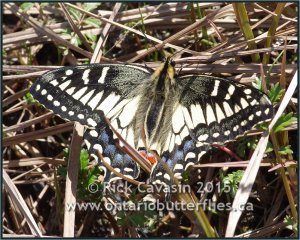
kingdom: Animalia
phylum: Arthropoda
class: Insecta
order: Lepidoptera
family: Papilionidae
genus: Papilio
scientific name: Papilio machaon
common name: Old World Swallowtail
